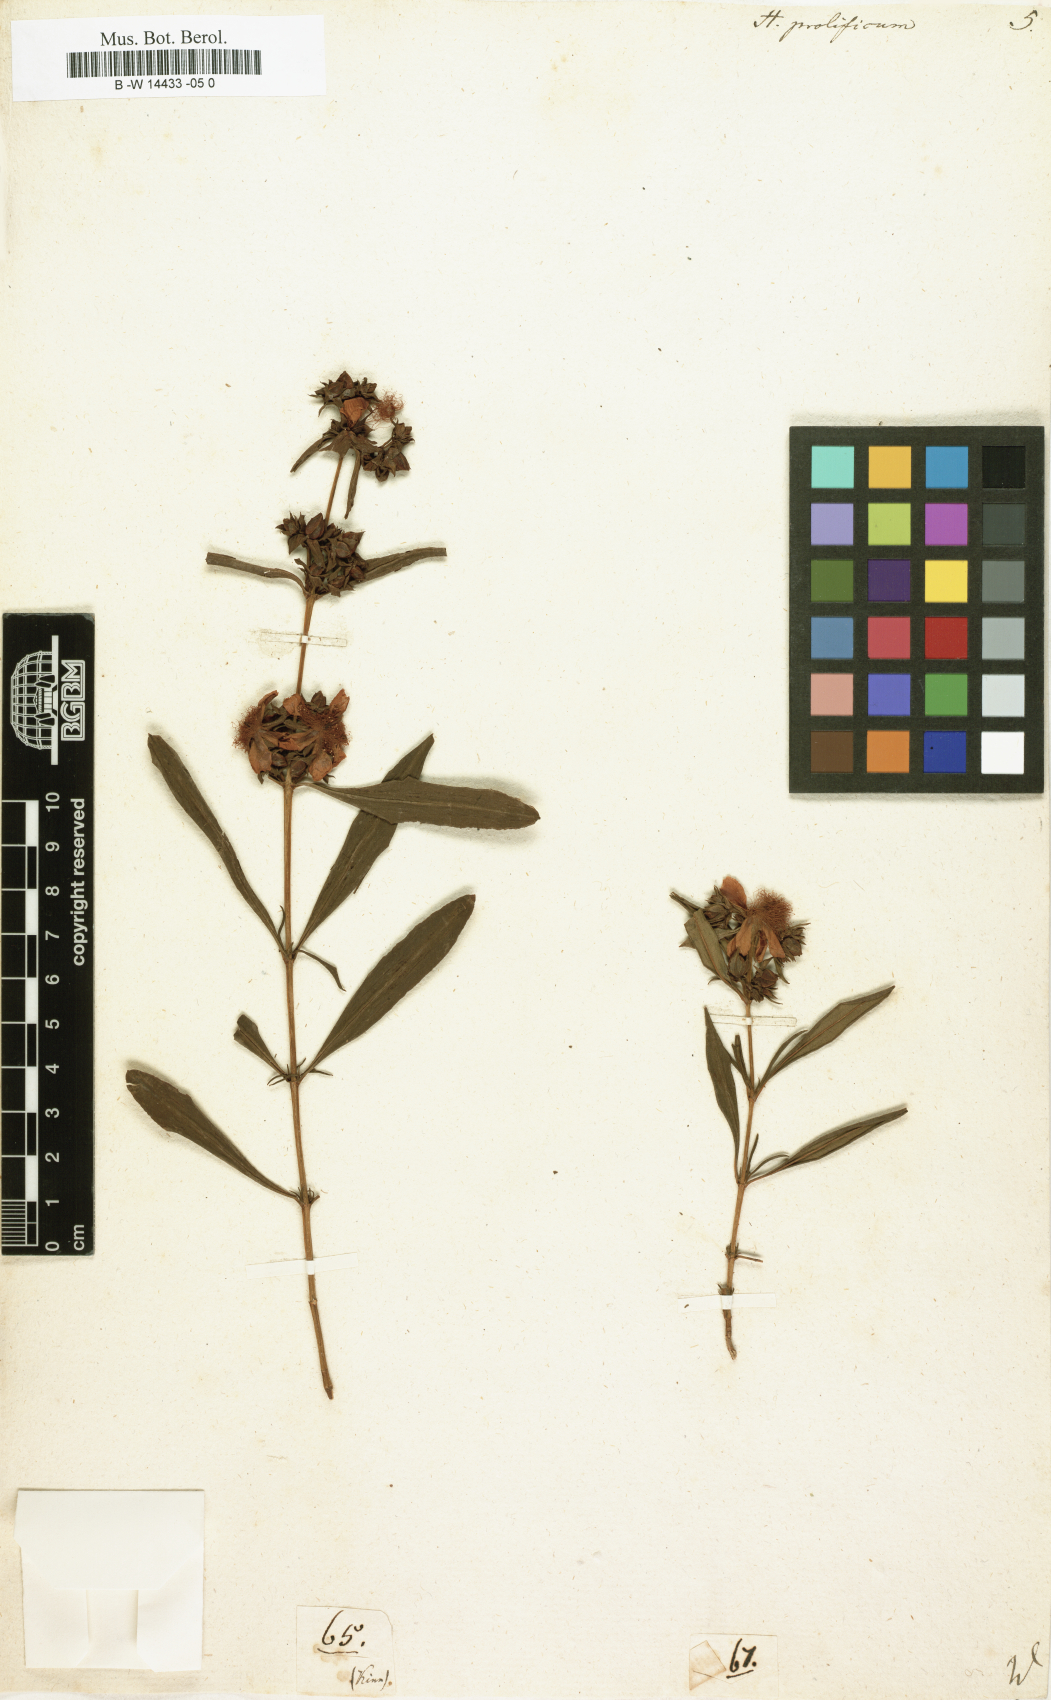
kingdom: Plantae
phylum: Tracheophyta
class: Magnoliopsida
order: Malpighiales
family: Hypericaceae
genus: Hypericum
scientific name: Hypericum prolificum
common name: Shrubby st. john's-wort
